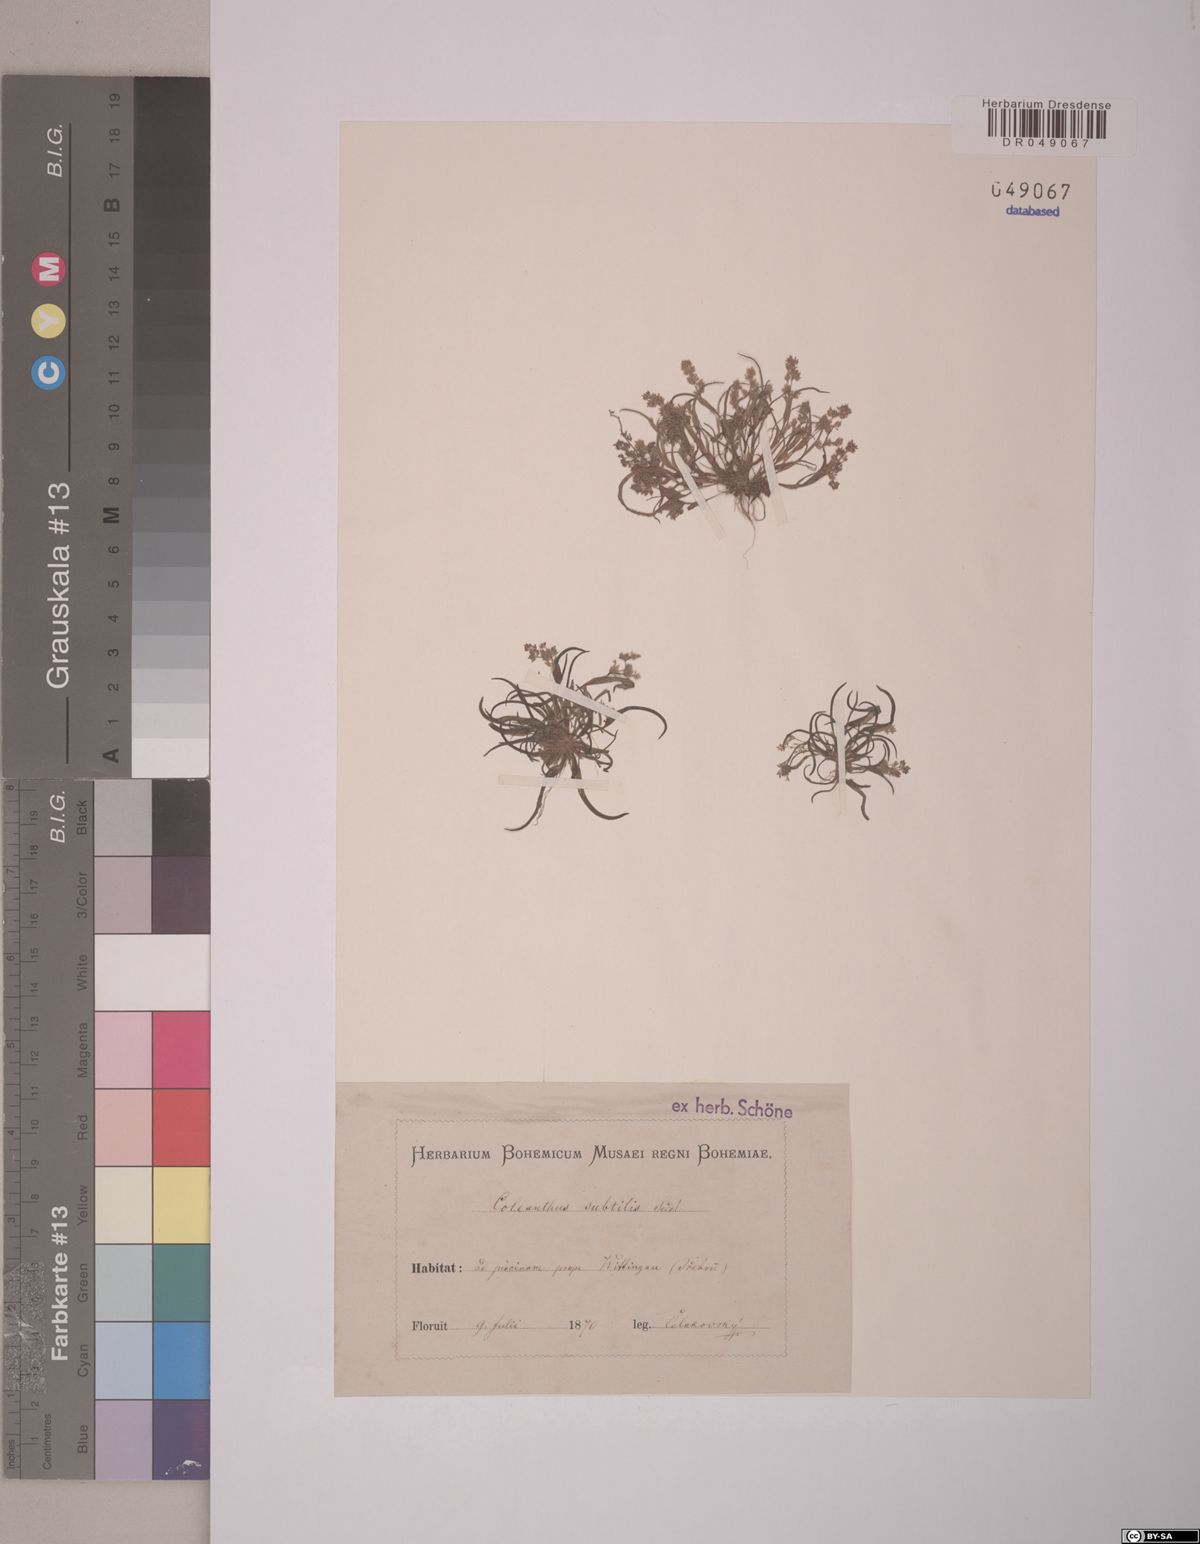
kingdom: Plantae
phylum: Tracheophyta
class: Liliopsida
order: Poales
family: Poaceae
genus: Coleanthus
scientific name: Coleanthus subtilis
